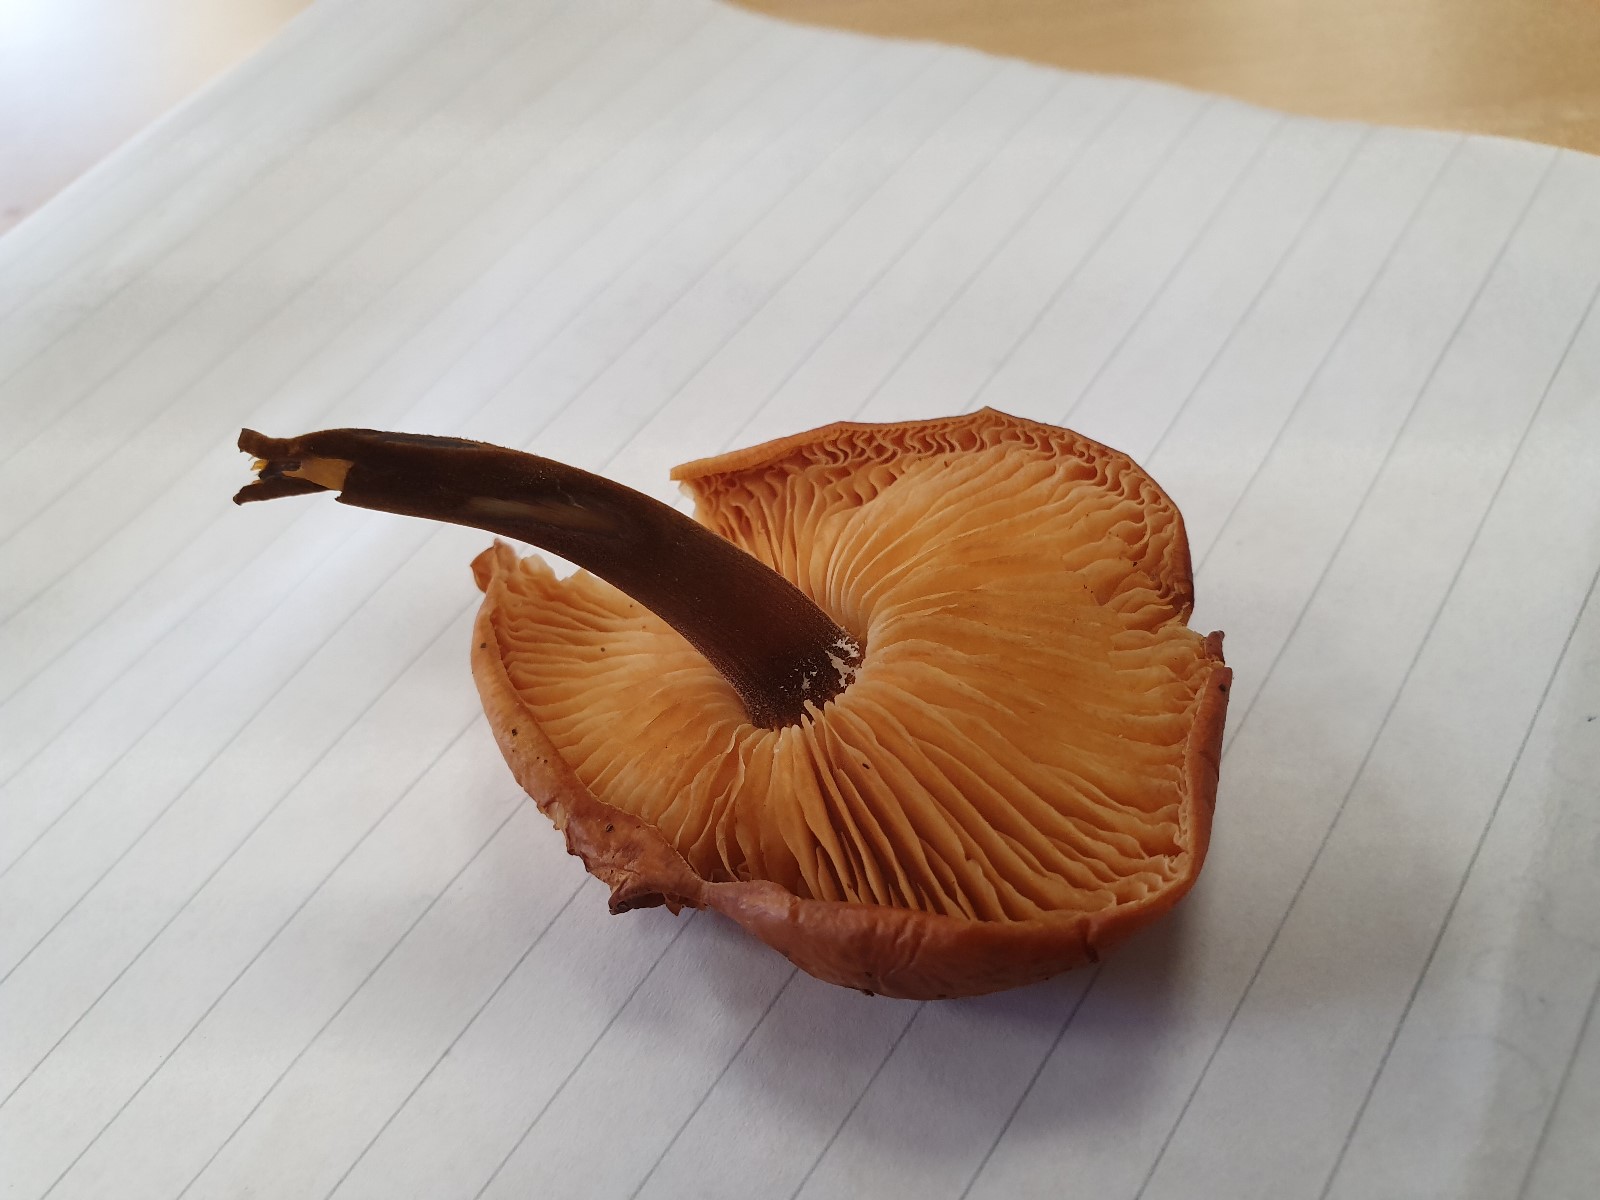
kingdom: Fungi
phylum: Basidiomycota
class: Agaricomycetes
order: Agaricales
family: Physalacriaceae
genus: Flammulina
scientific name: Flammulina velutipes
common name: gul fløjlsfod
